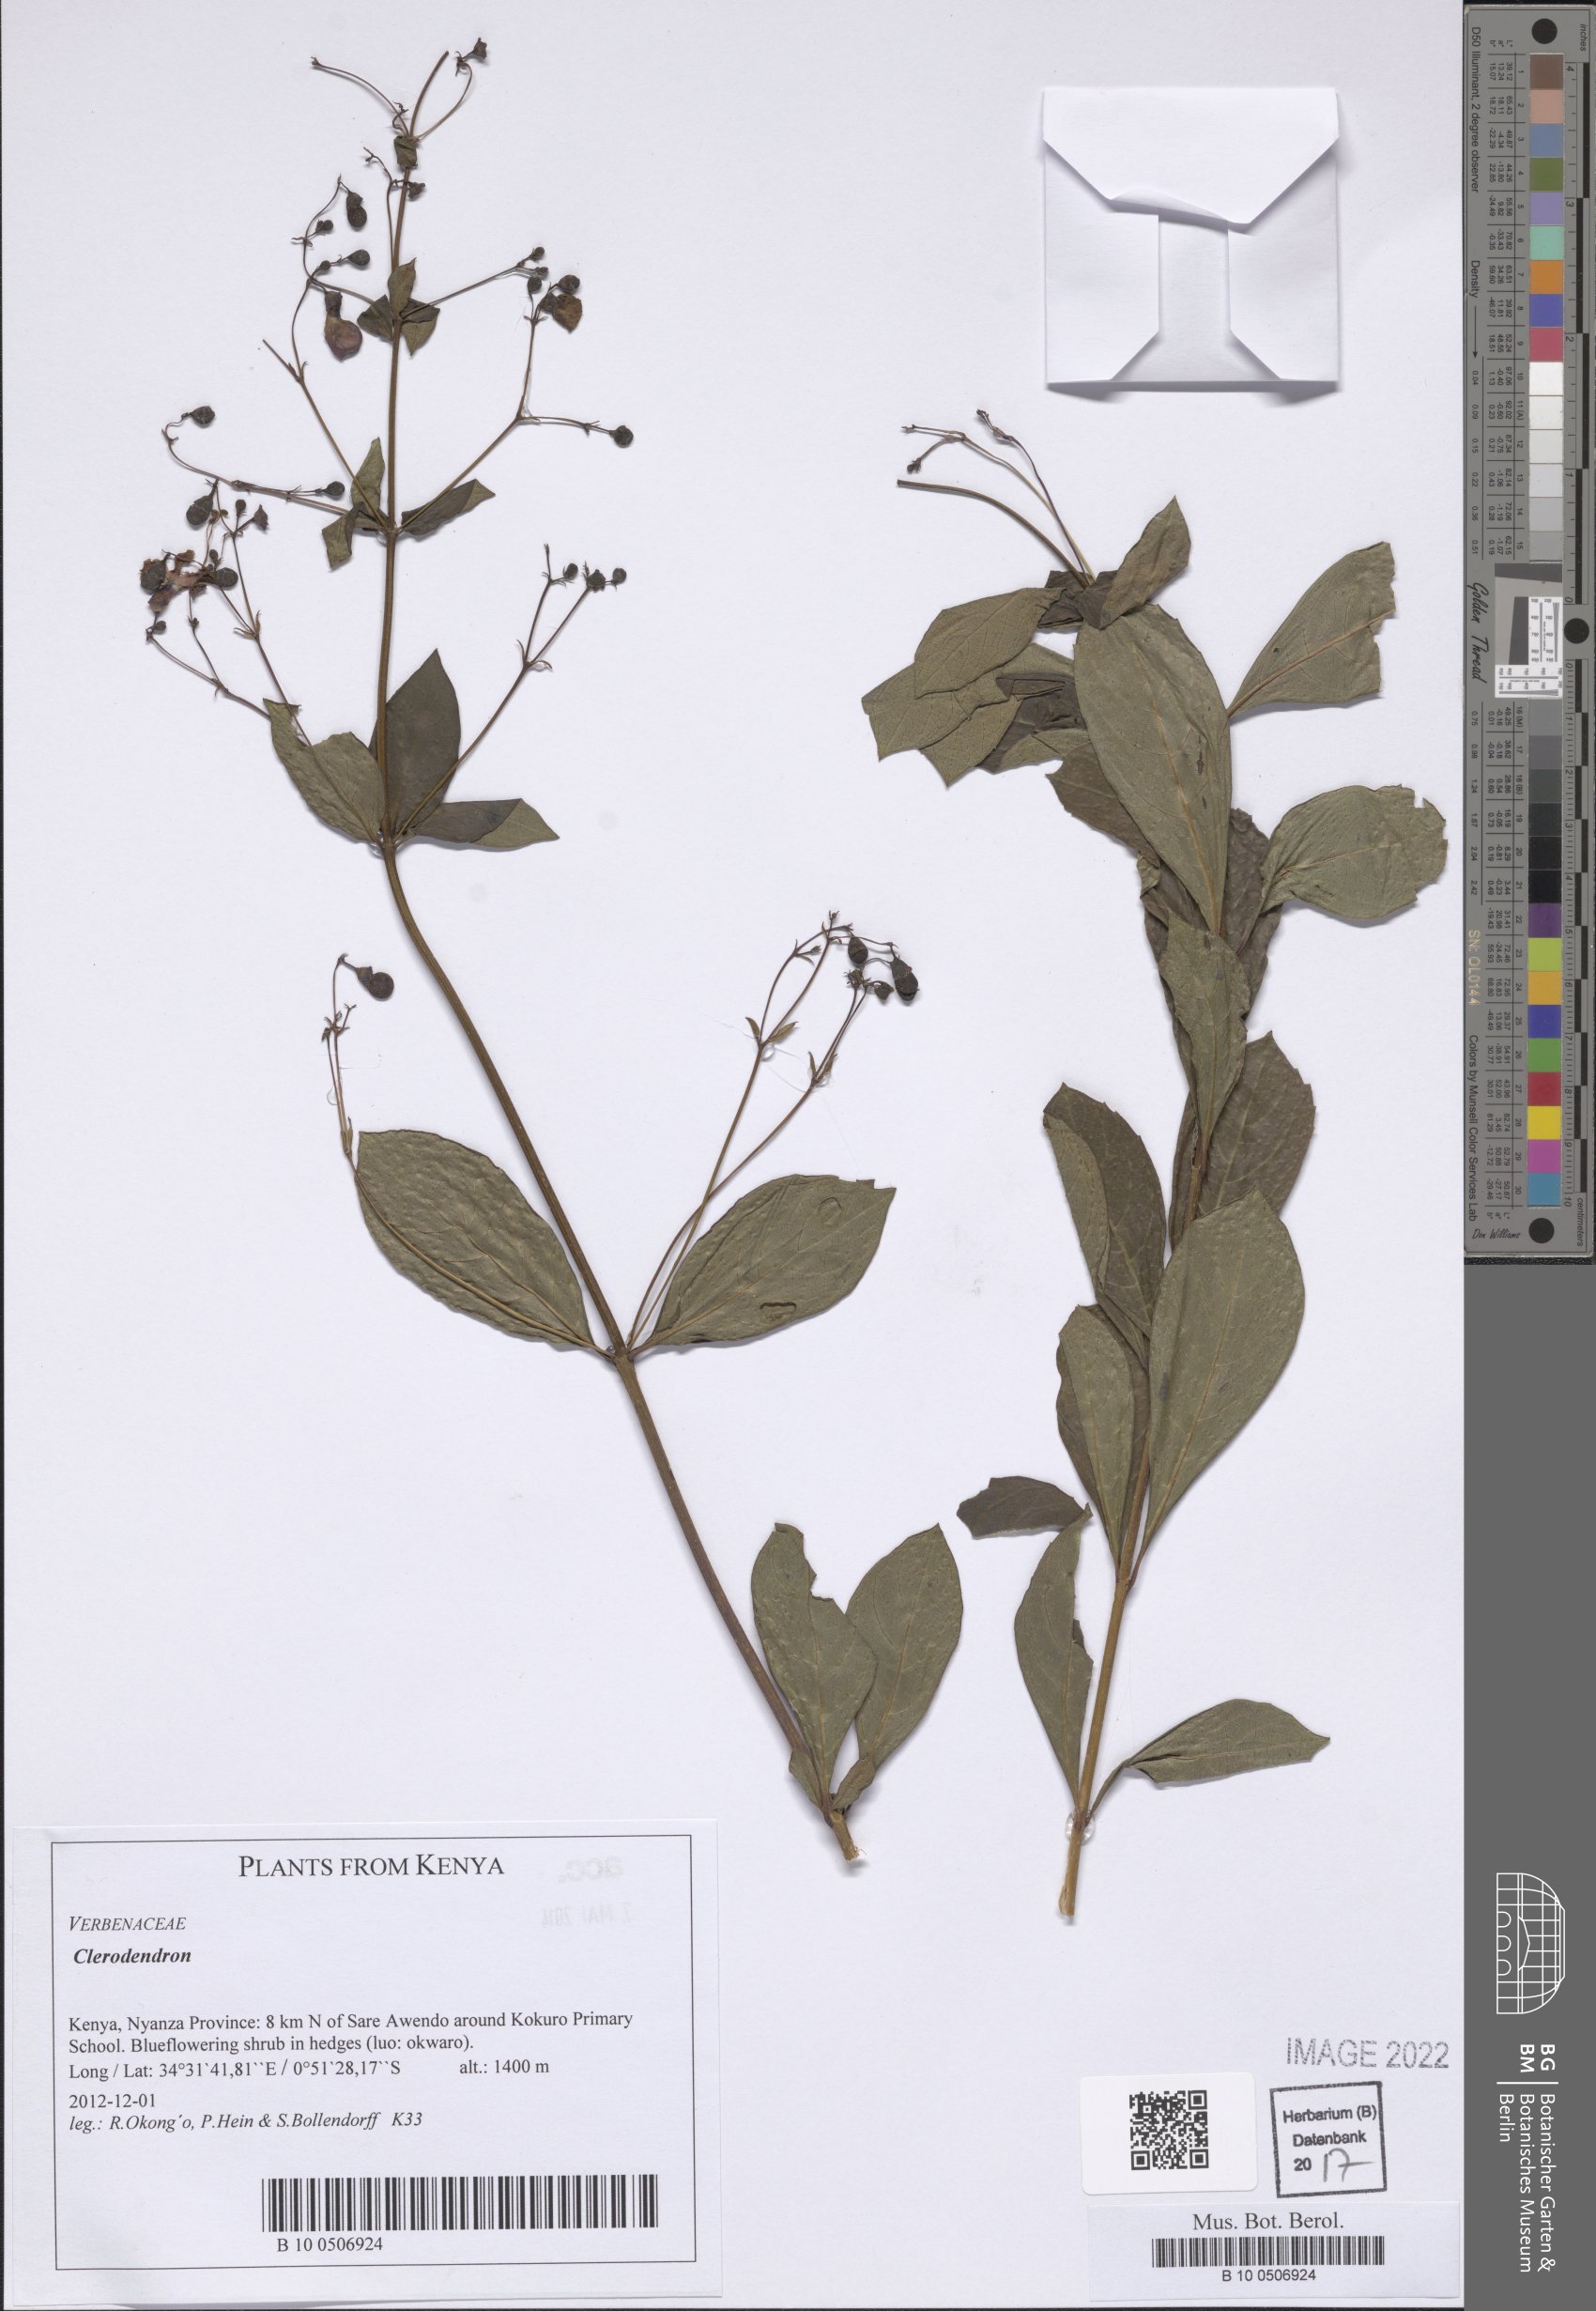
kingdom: Plantae
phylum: Tracheophyta
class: Magnoliopsida
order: Lamiales
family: Lamiaceae
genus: Clerodendrum
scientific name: Clerodendrum
